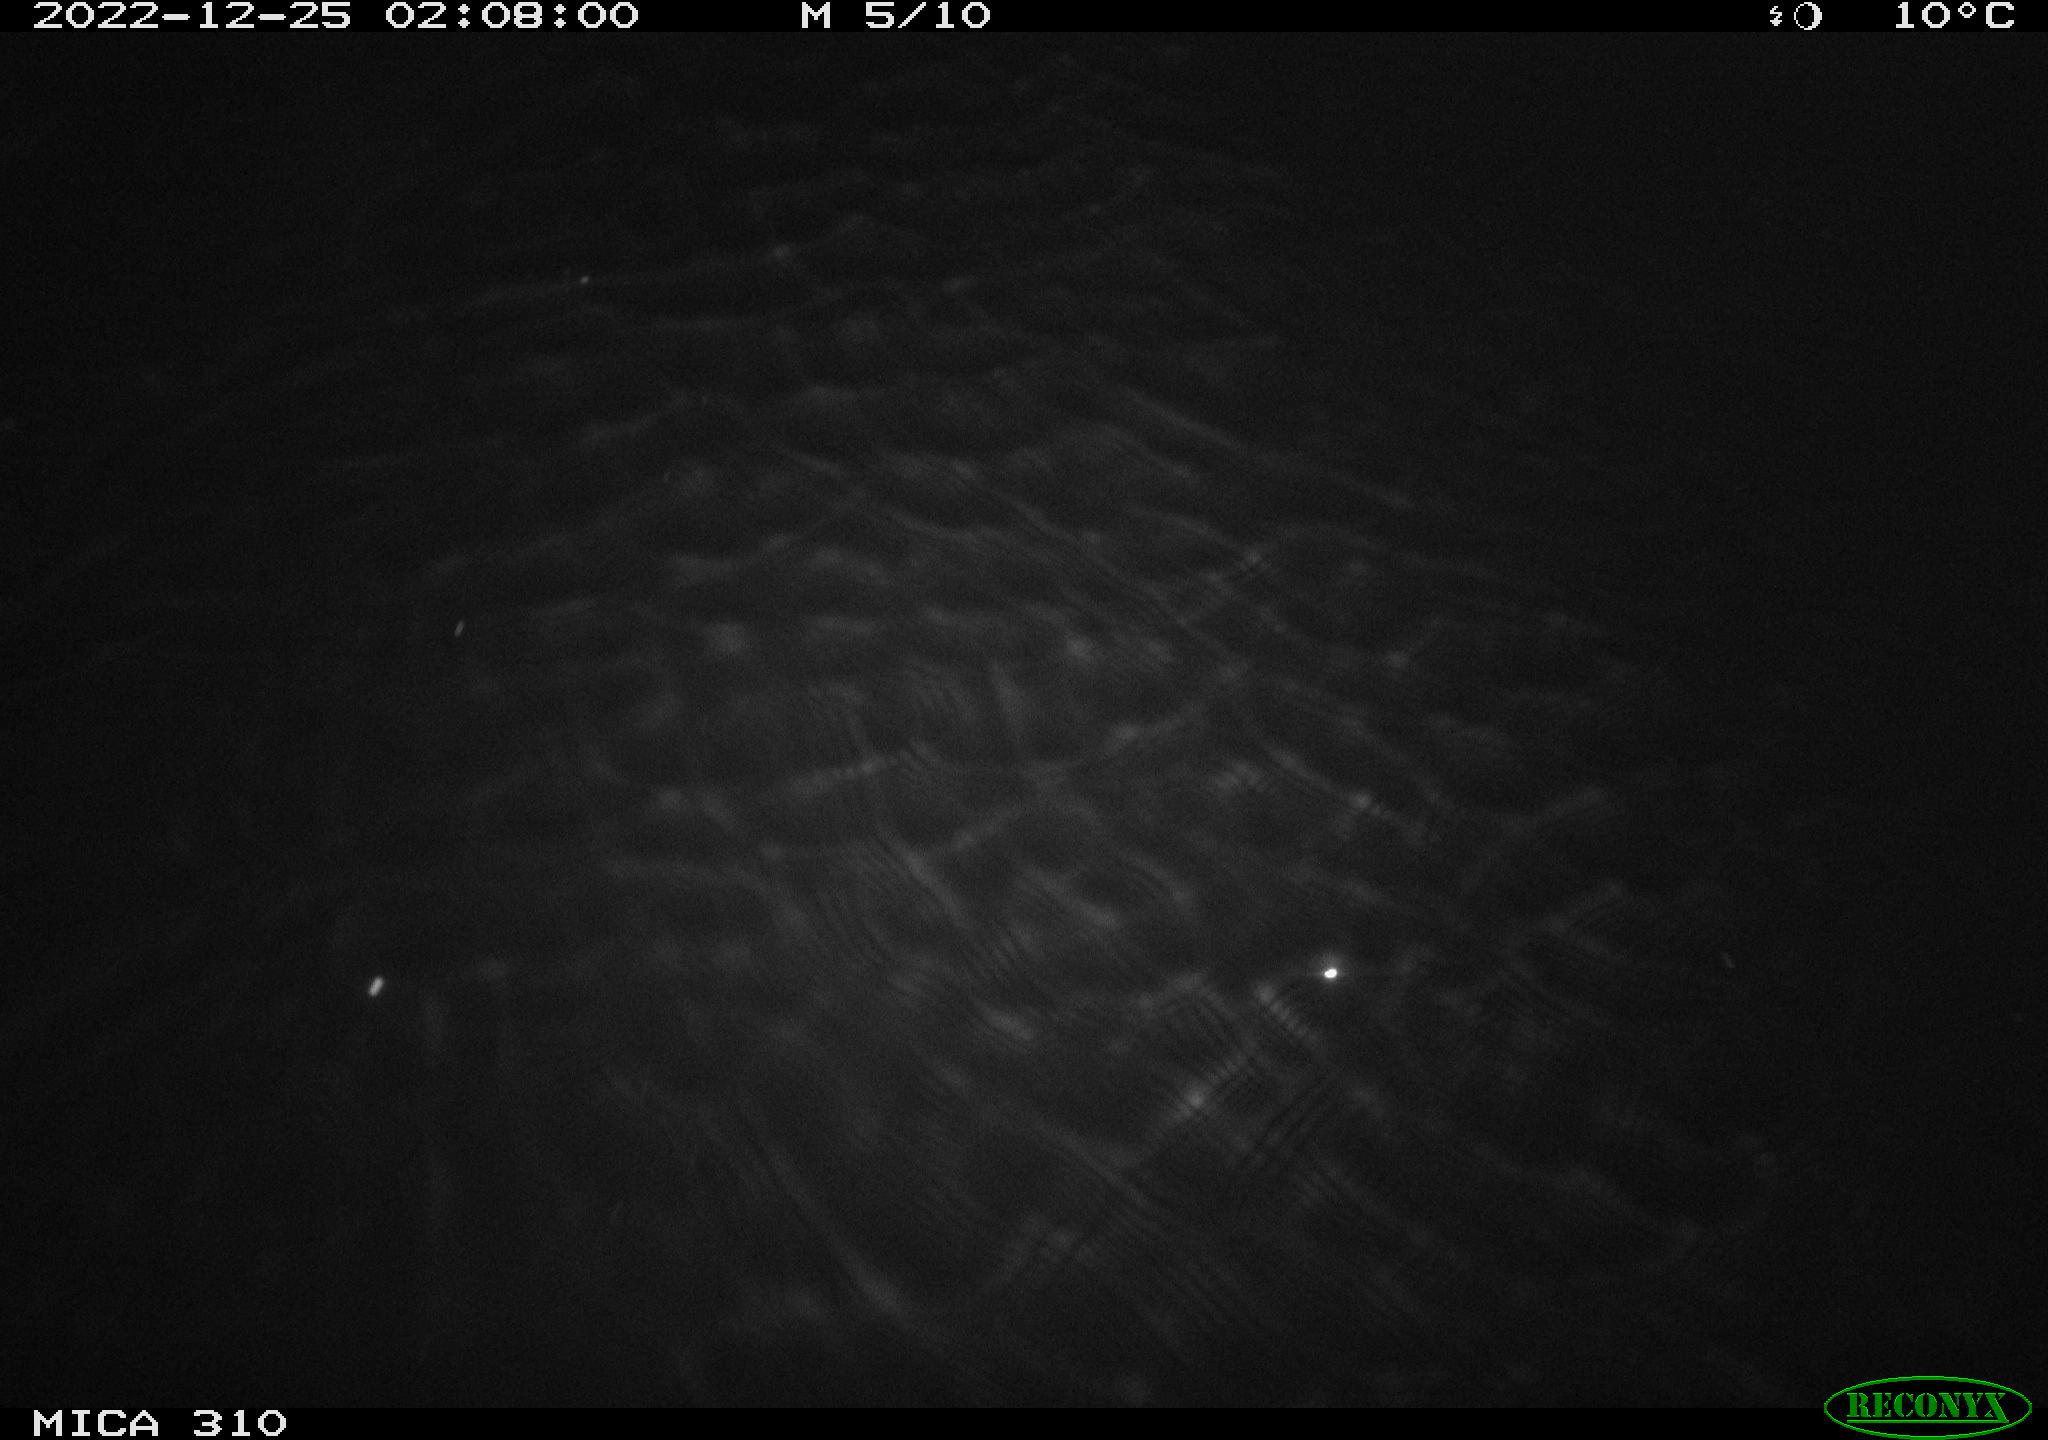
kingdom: Animalia
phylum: Chordata
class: Mammalia
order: Rodentia
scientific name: Rodentia
